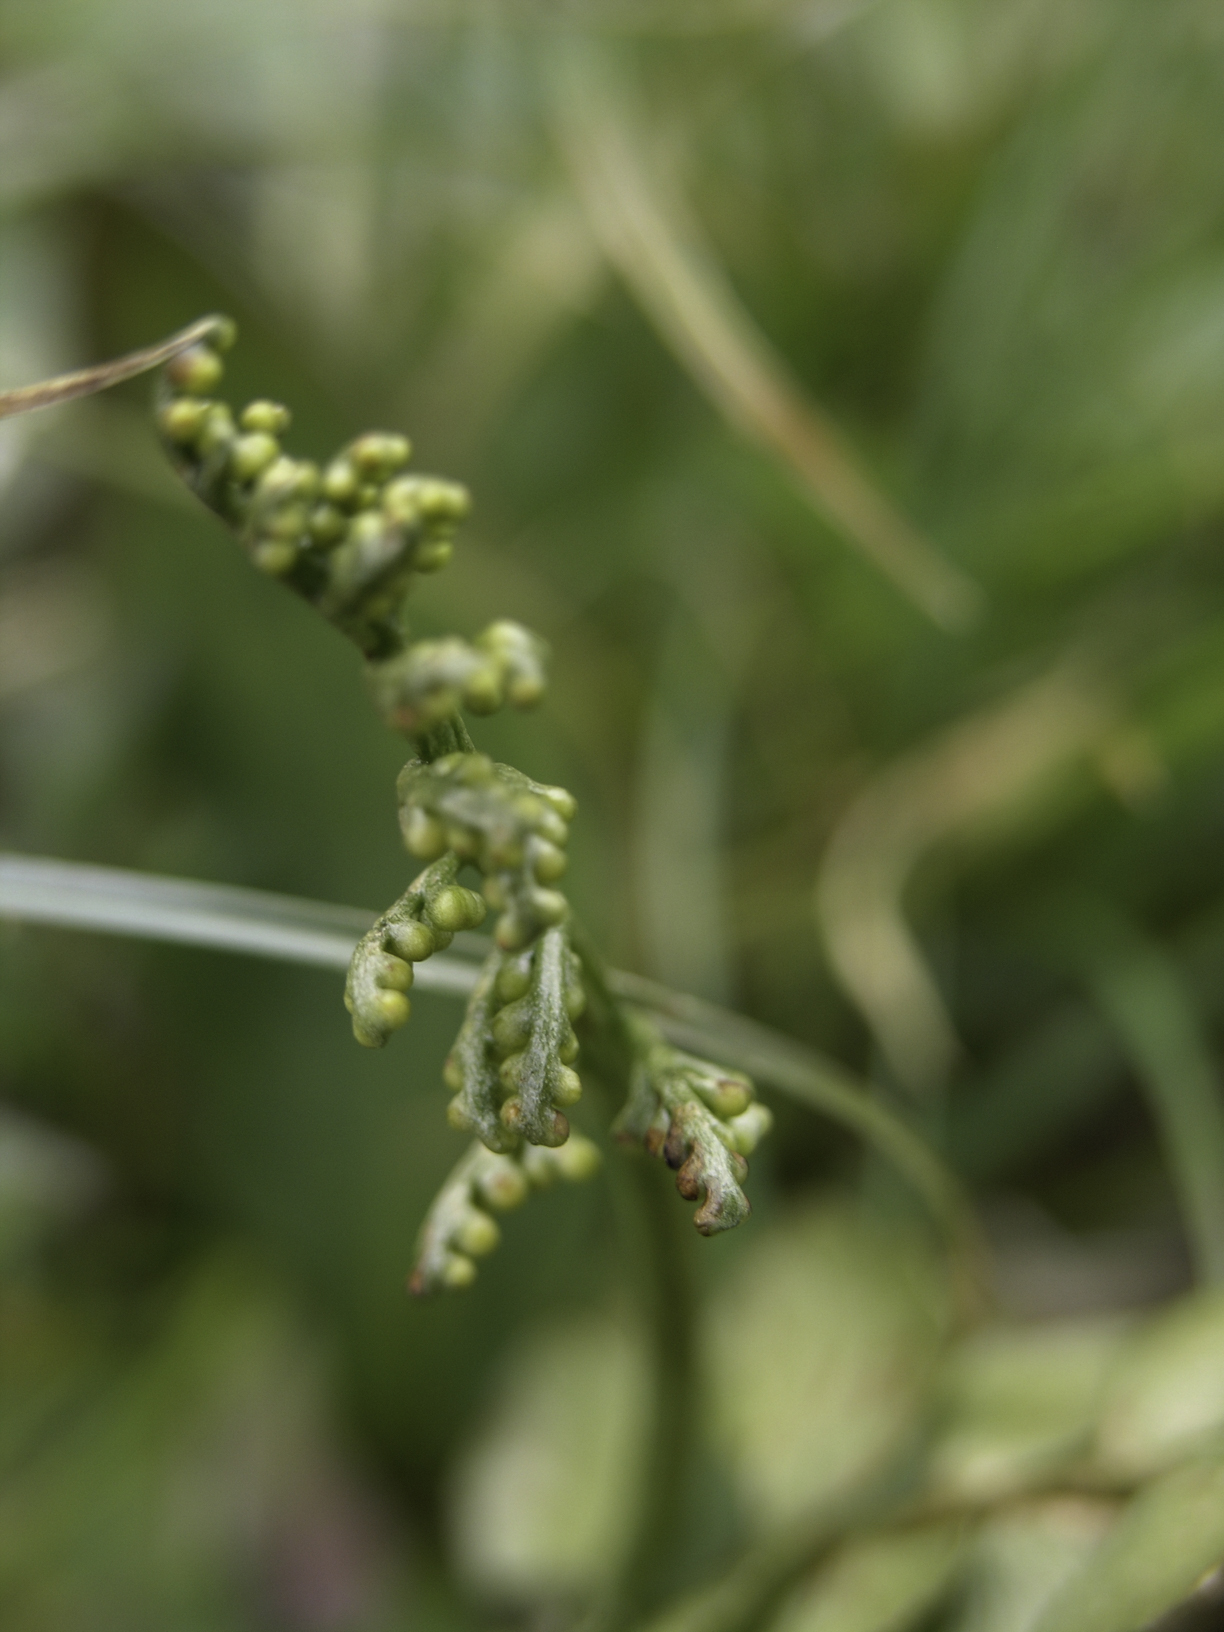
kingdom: Plantae
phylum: Tracheophyta
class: Polypodiopsida
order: Ophioglossales
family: Ophioglossaceae
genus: Botrychium
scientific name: Botrychium lunaria
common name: Moonwort
